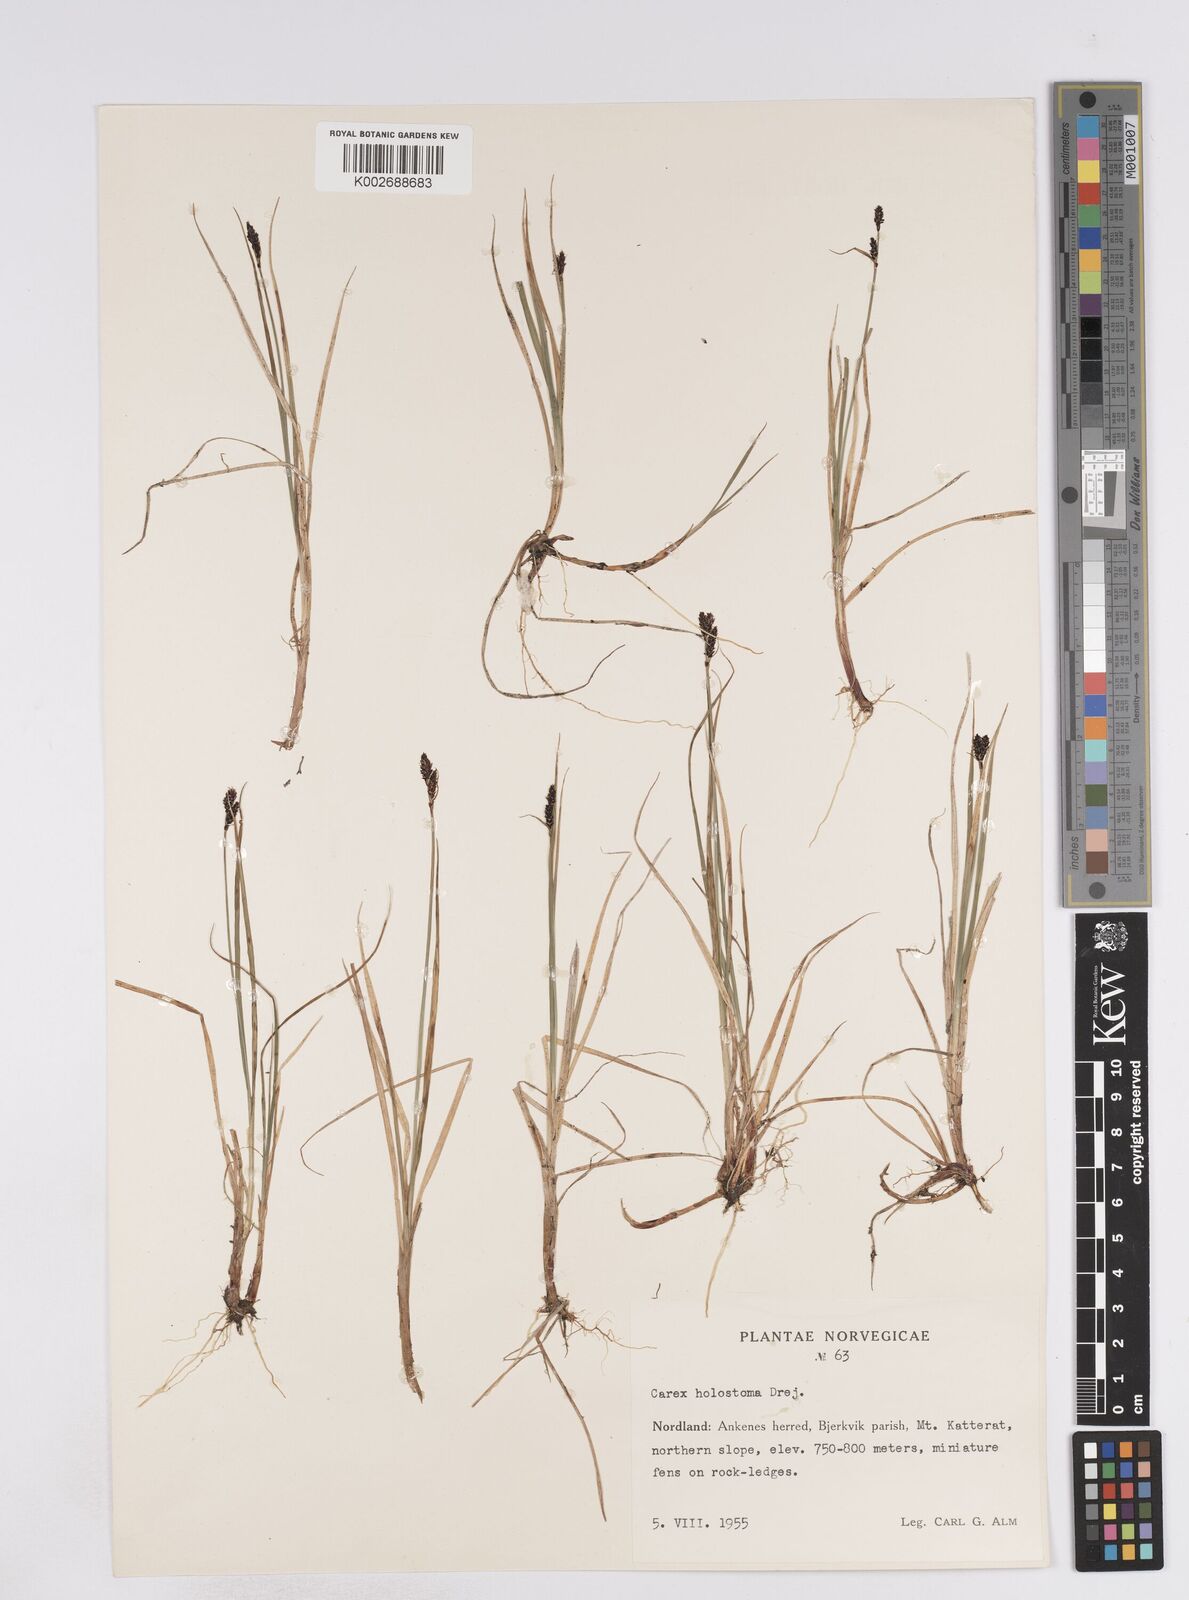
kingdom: Plantae
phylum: Tracheophyta
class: Liliopsida
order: Poales
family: Cyperaceae
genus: Carex
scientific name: Carex holostoma
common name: Arctic marsh sedge
